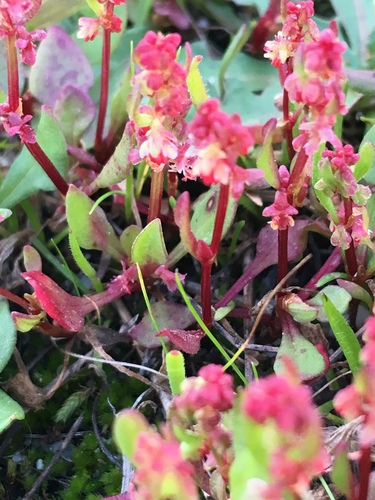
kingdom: Plantae
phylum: Tracheophyta
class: Magnoliopsida
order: Caryophyllales
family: Polygonaceae
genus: Rumex
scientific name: Rumex bucephalophorus
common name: Red dock
